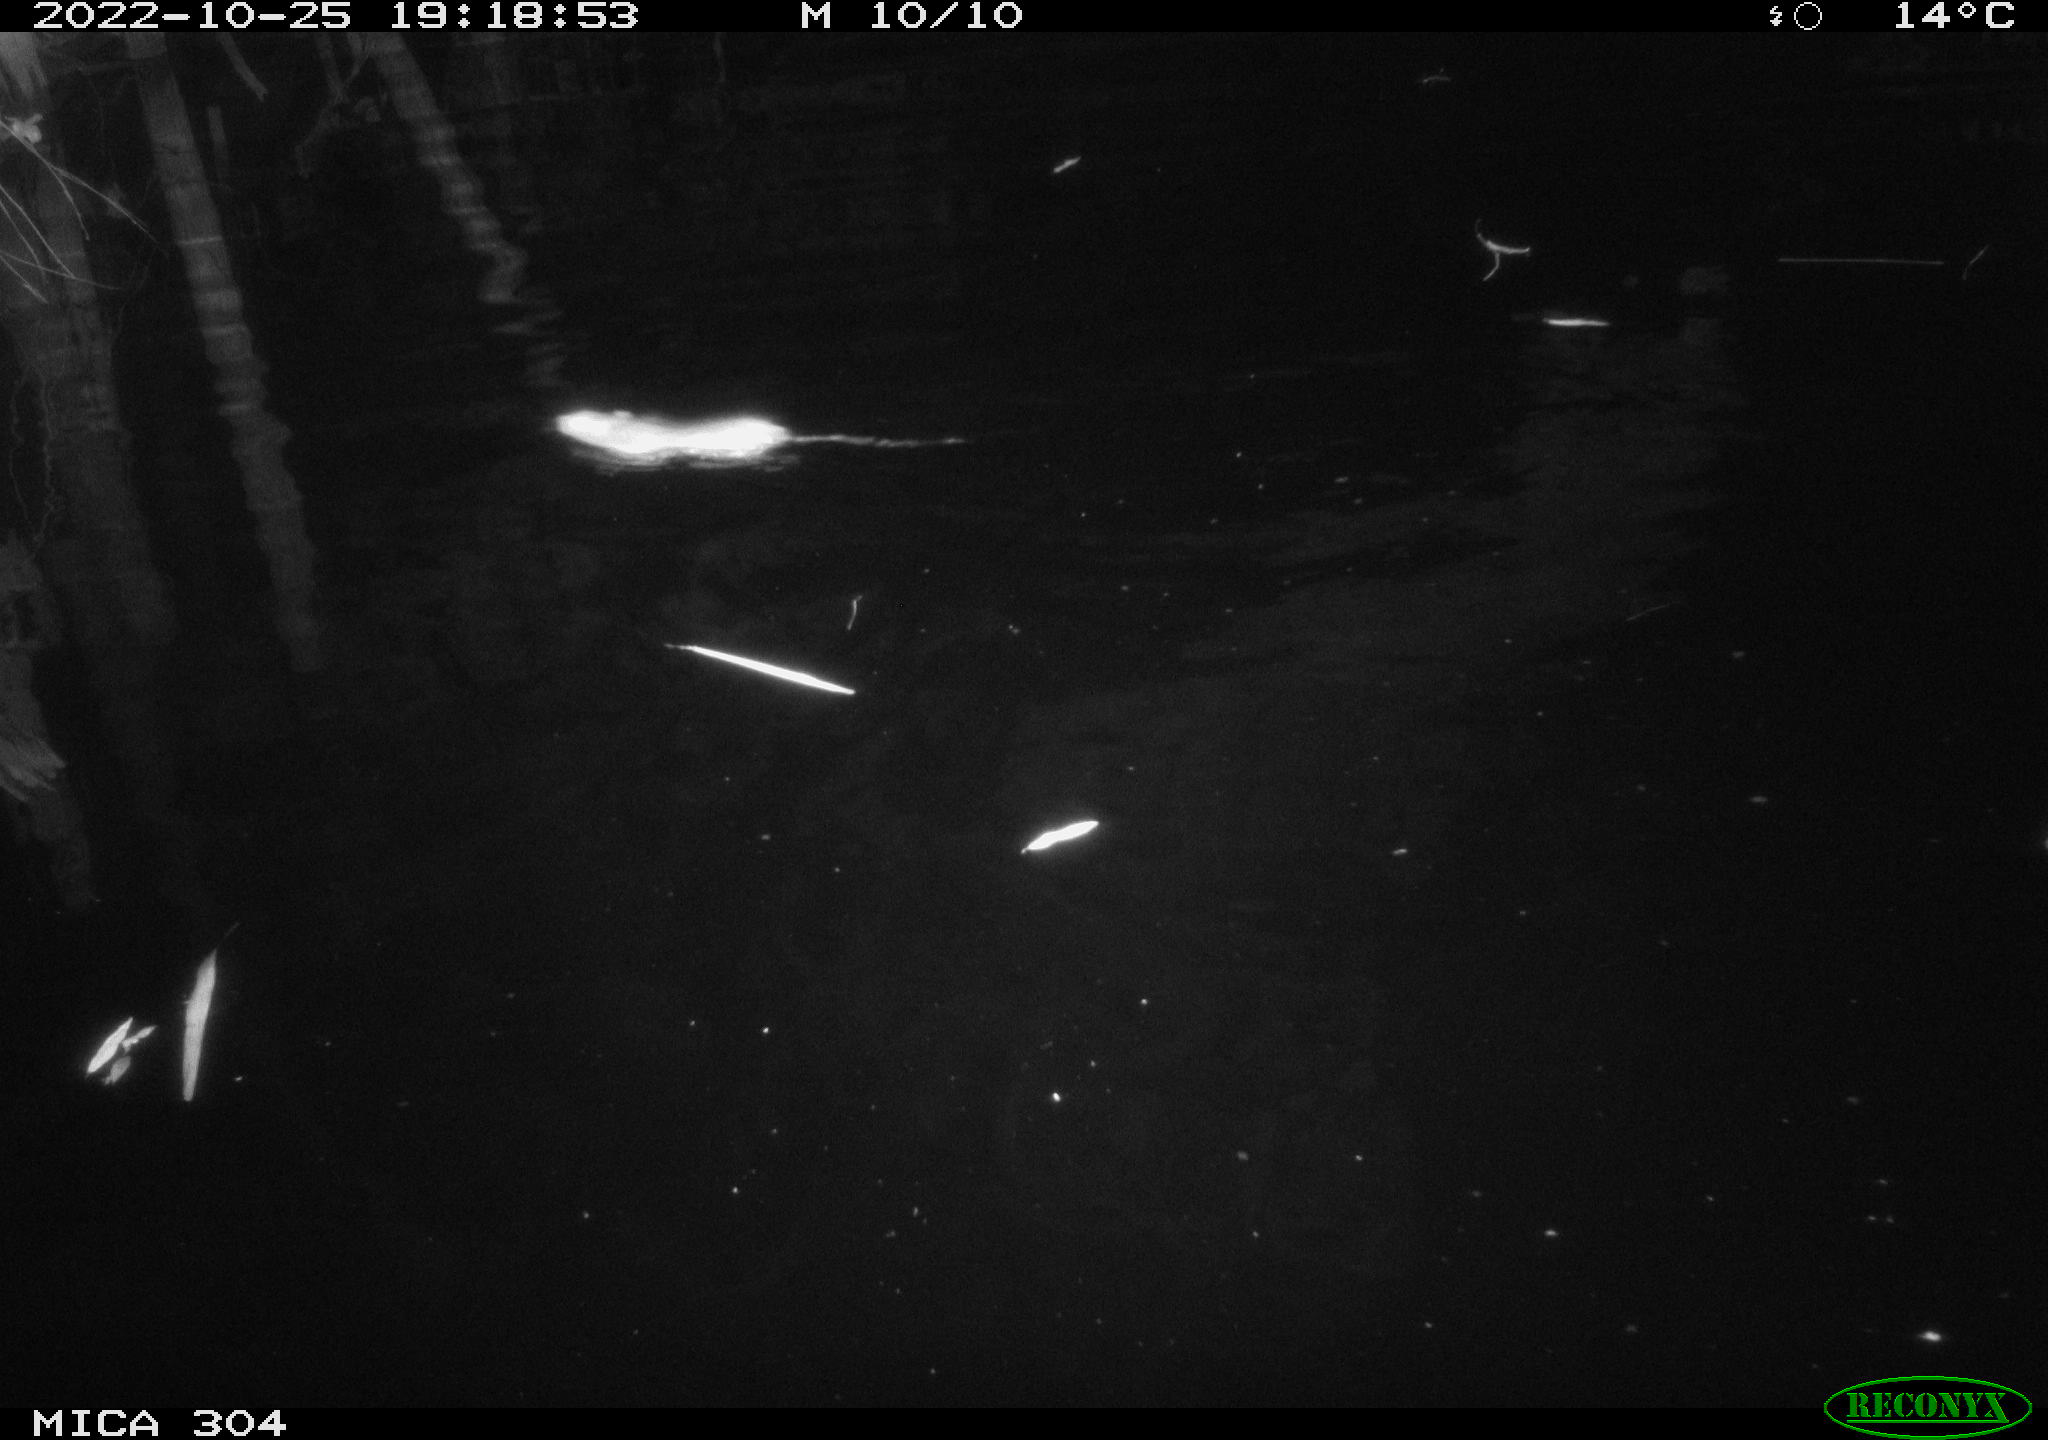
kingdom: Animalia
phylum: Chordata
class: Mammalia
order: Rodentia
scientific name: Rodentia
